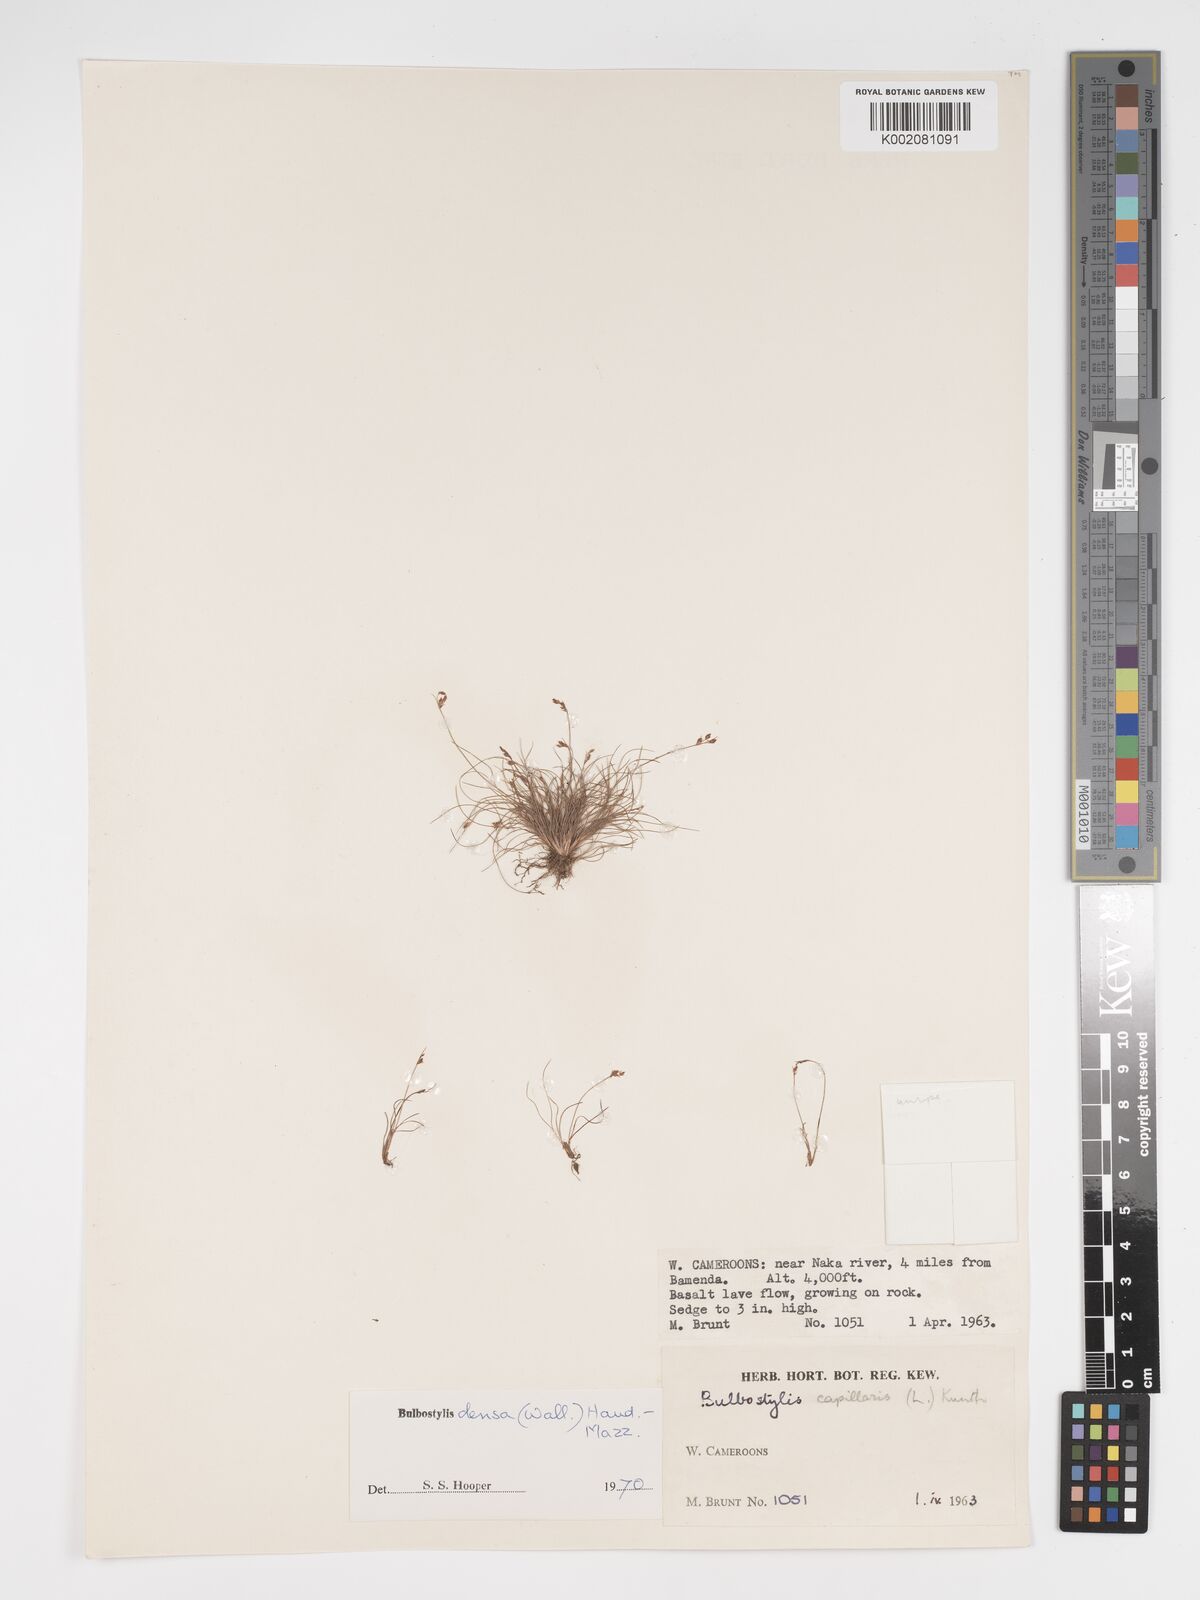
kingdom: Plantae
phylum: Tracheophyta
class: Liliopsida
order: Poales
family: Cyperaceae
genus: Bulbostylis
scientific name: Bulbostylis densa
